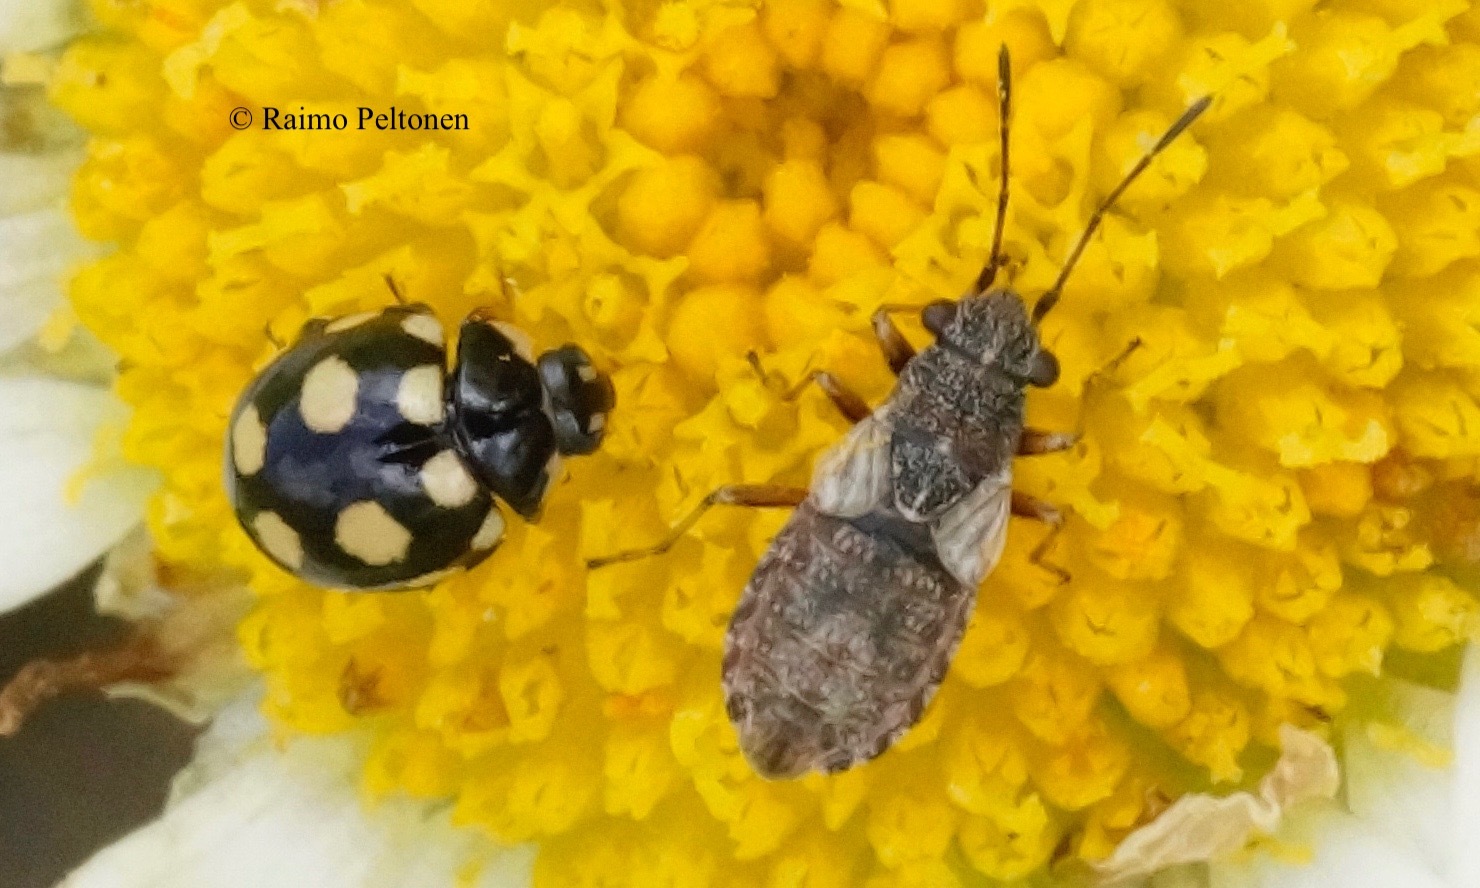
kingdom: Animalia
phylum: Arthropoda
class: Insecta
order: Hemiptera
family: Lygaeidae
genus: Nithecus
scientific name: Nithecus jacobaeae
